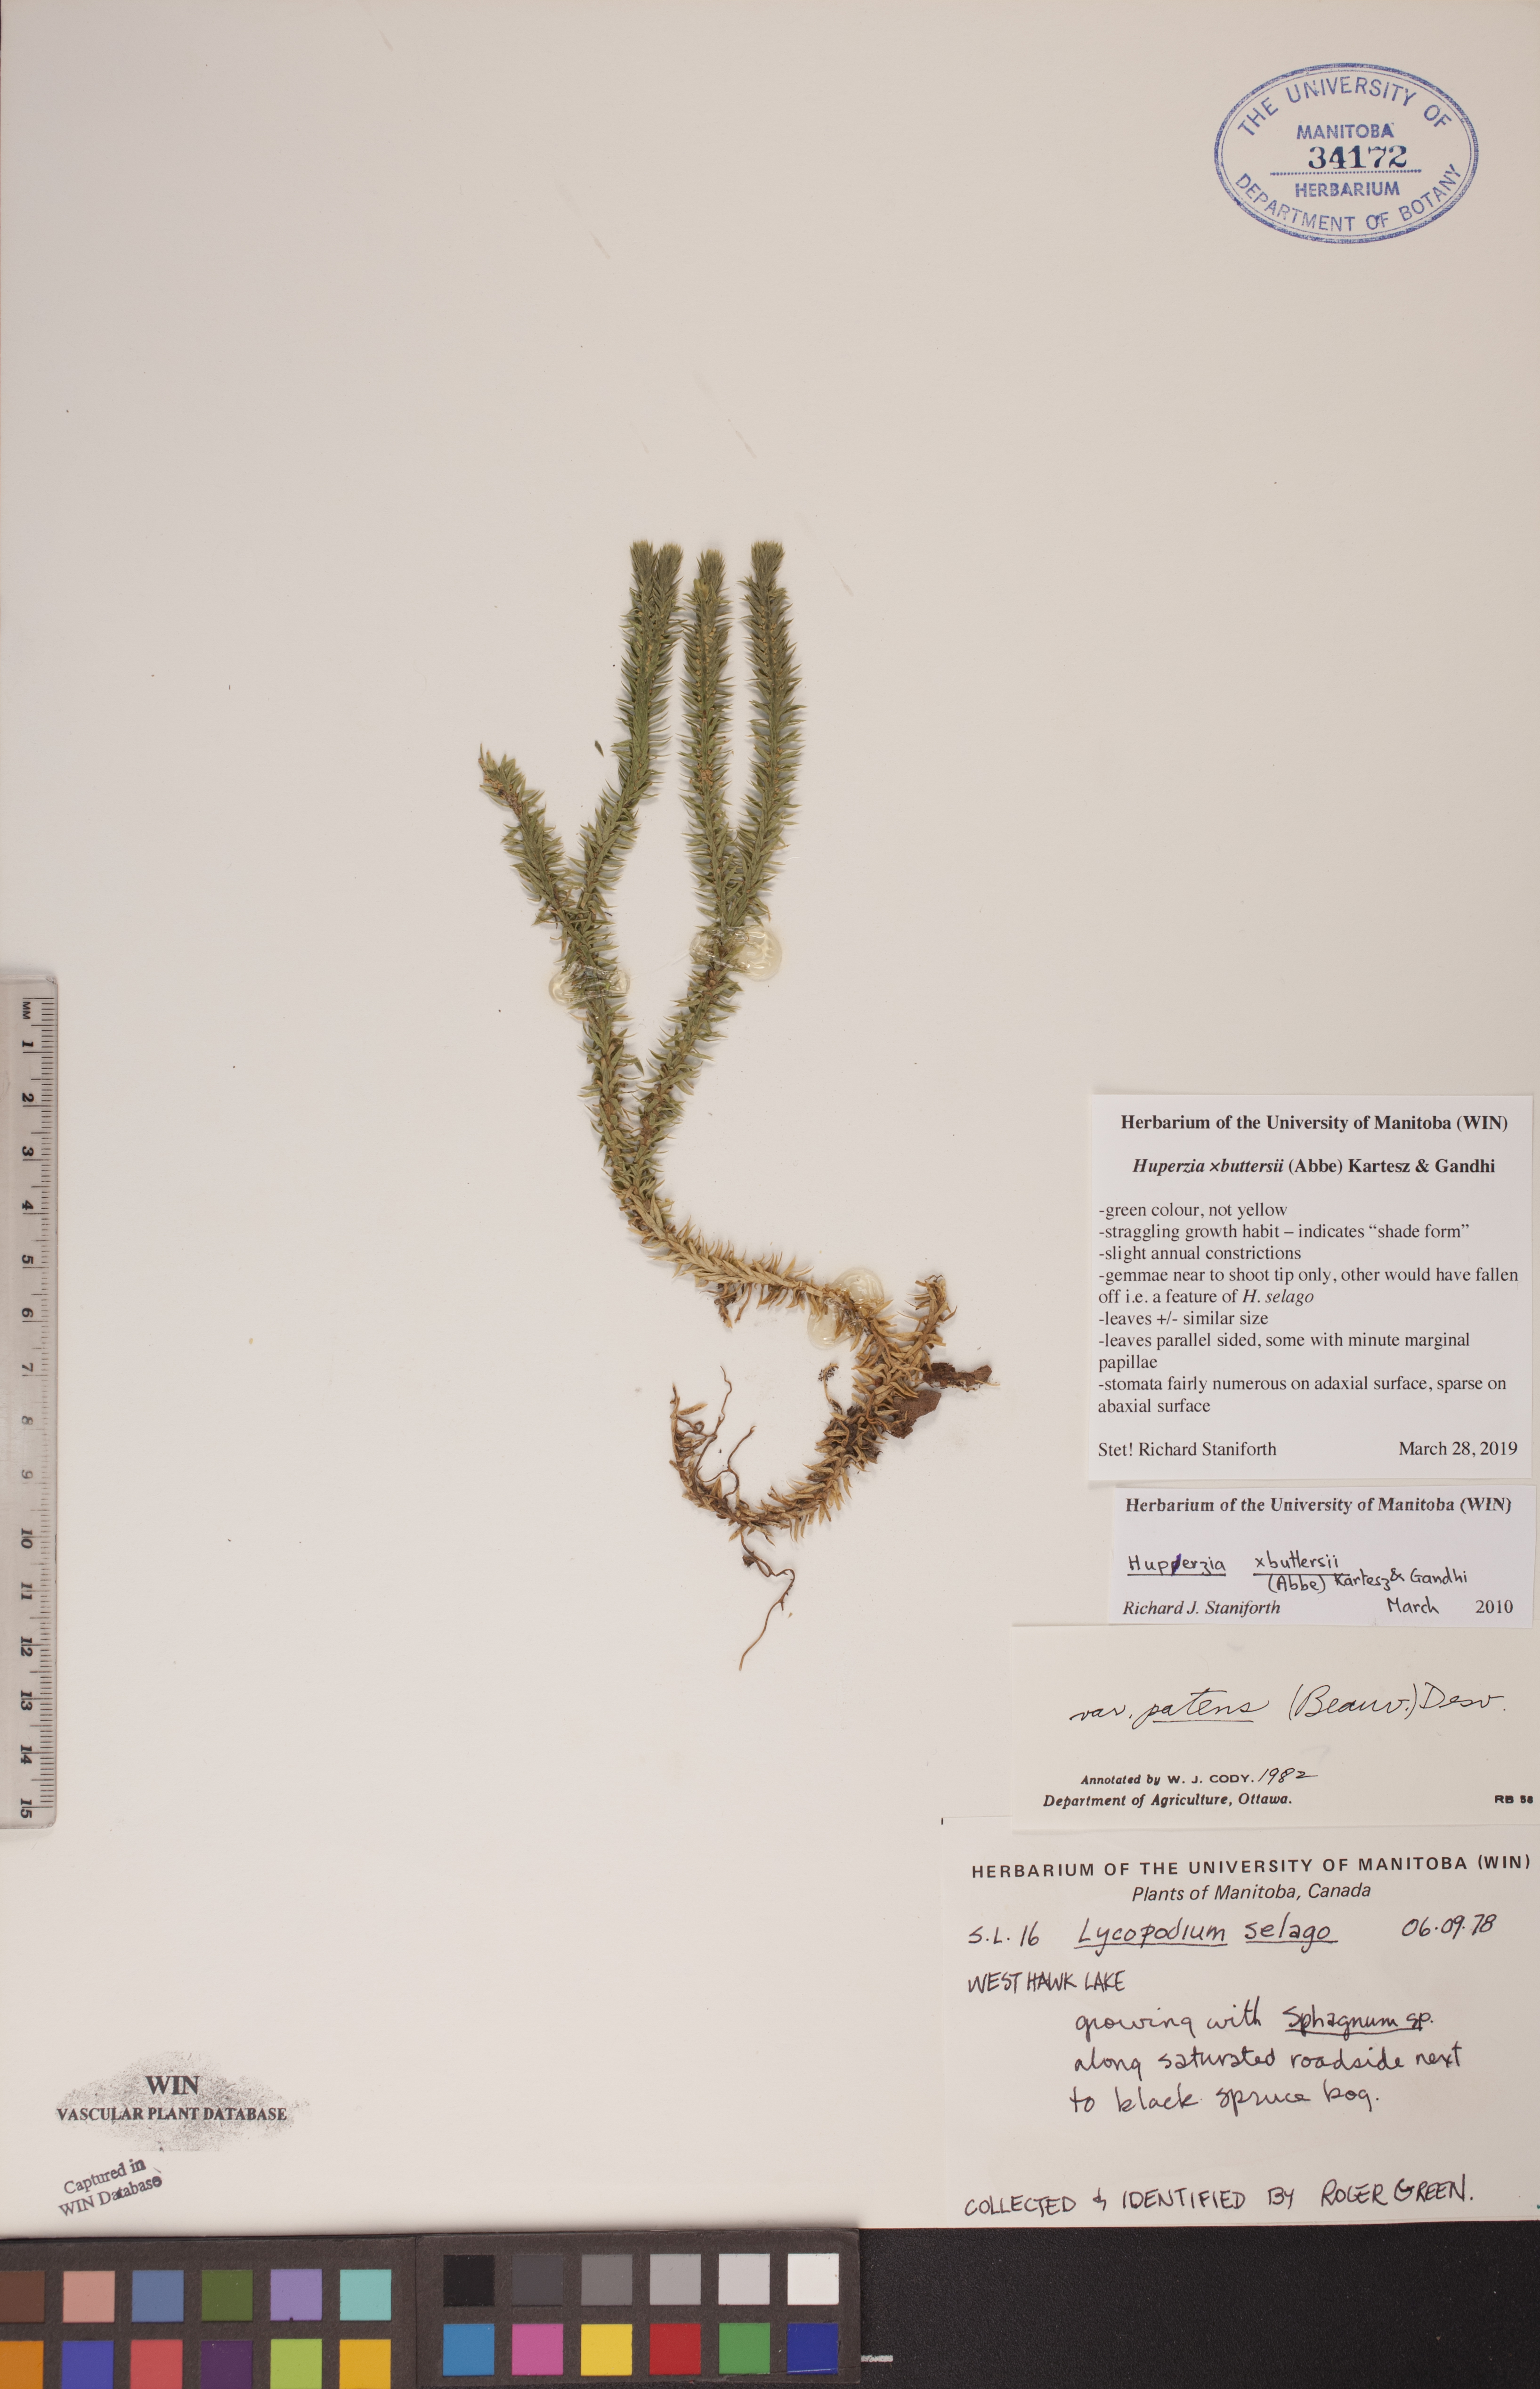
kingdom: Plantae
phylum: Tracheophyta
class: Lycopodiopsida
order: Lycopodiales
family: Lycopodiaceae
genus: Huperzia
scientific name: Huperzia buttersii
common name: Butters' clubmoss
